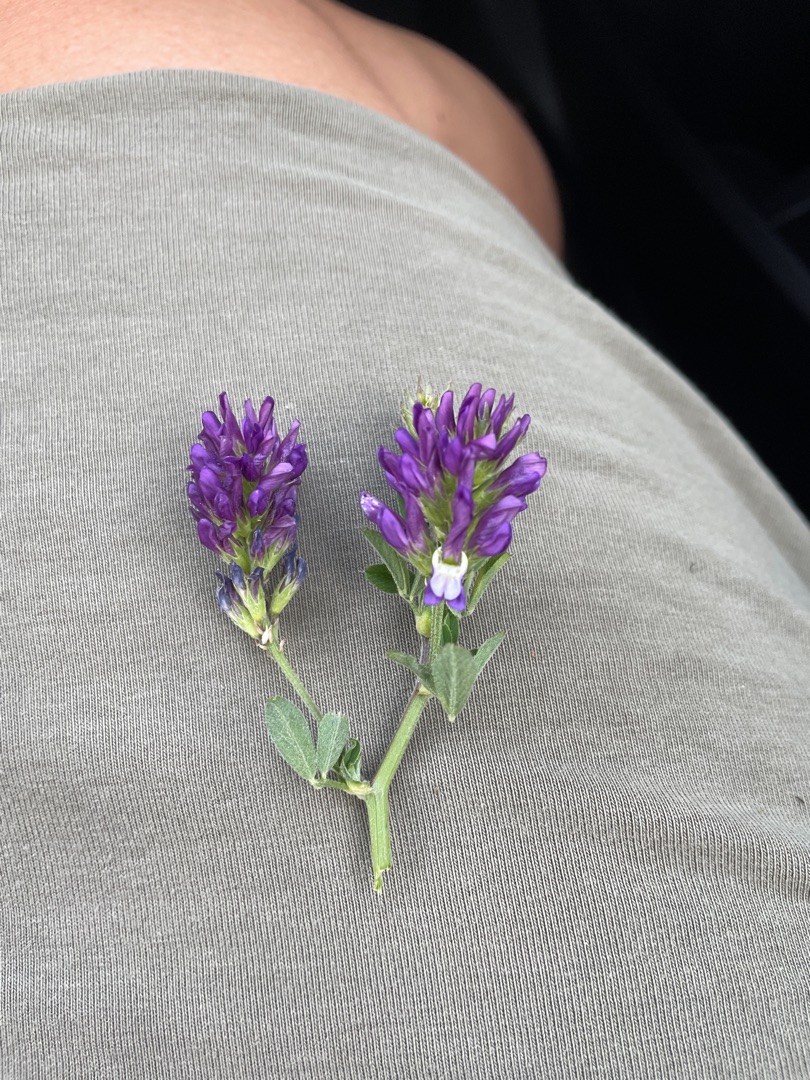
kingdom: Plantae
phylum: Tracheophyta
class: Magnoliopsida
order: Fabales
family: Fabaceae
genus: Medicago
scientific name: Medicago sativa
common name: Lucerne
